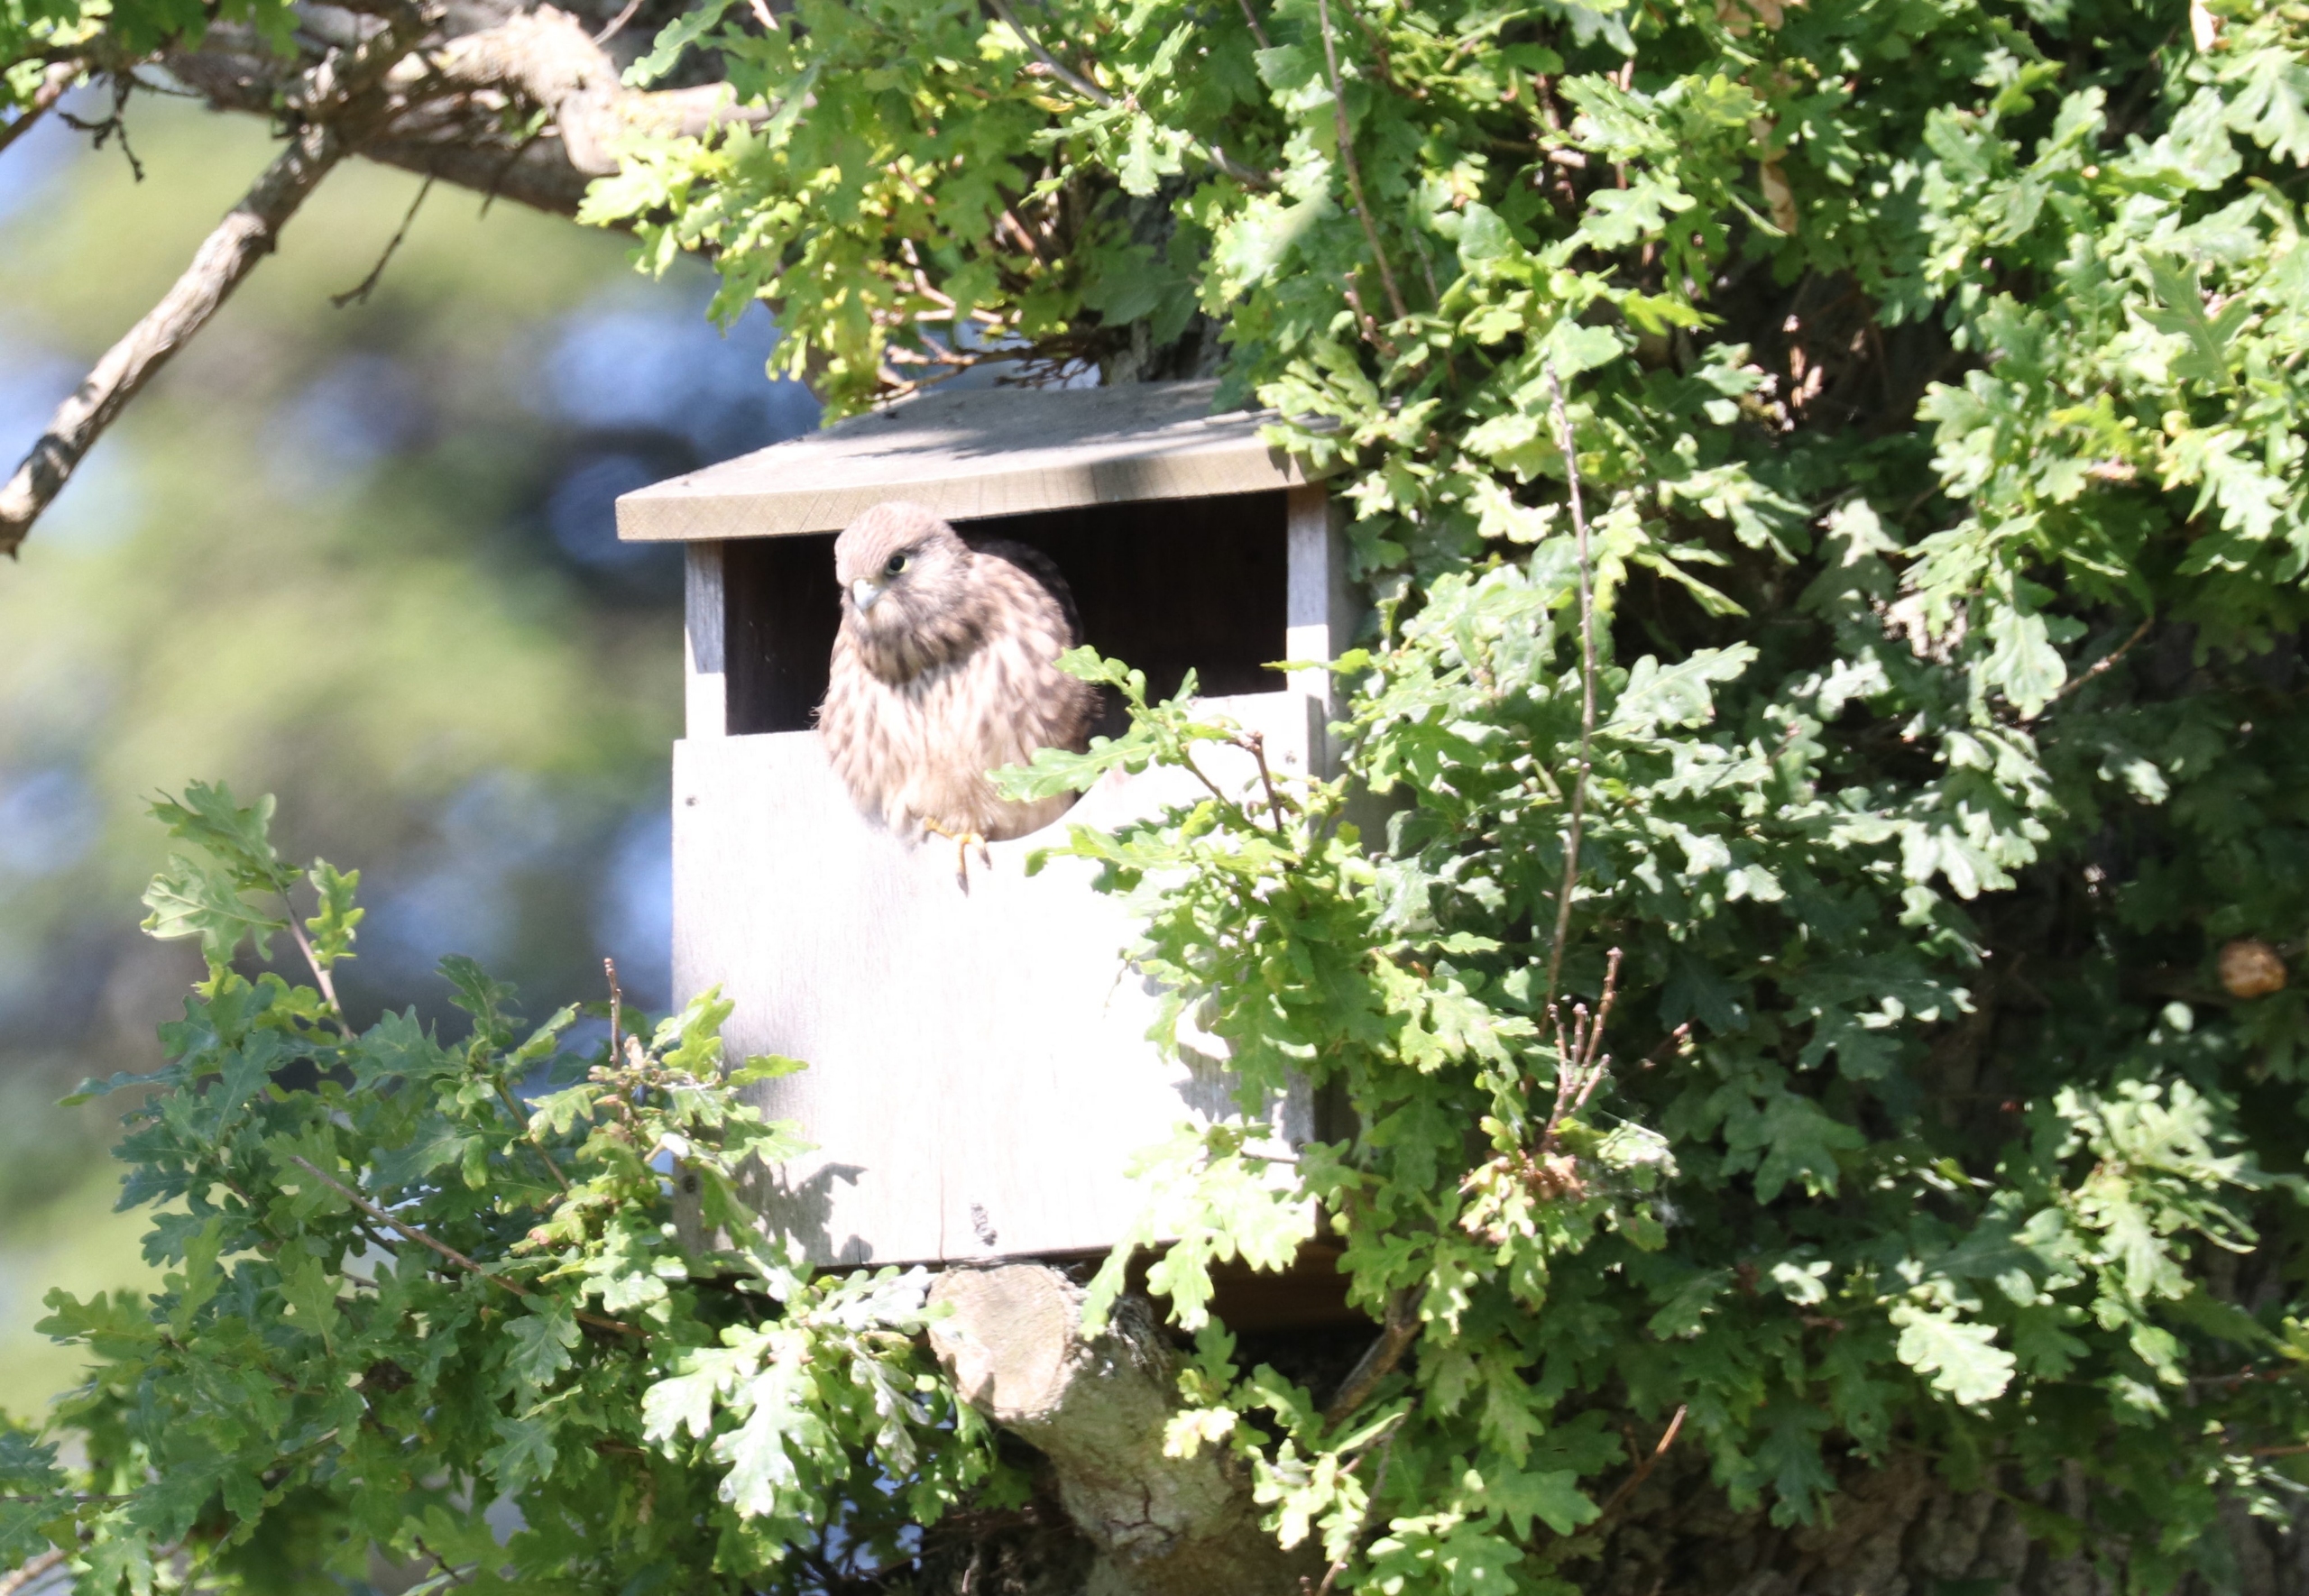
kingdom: Animalia
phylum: Chordata
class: Aves
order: Falconiformes
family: Falconidae
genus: Falco
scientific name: Falco tinnunculus
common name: Tårnfalk
